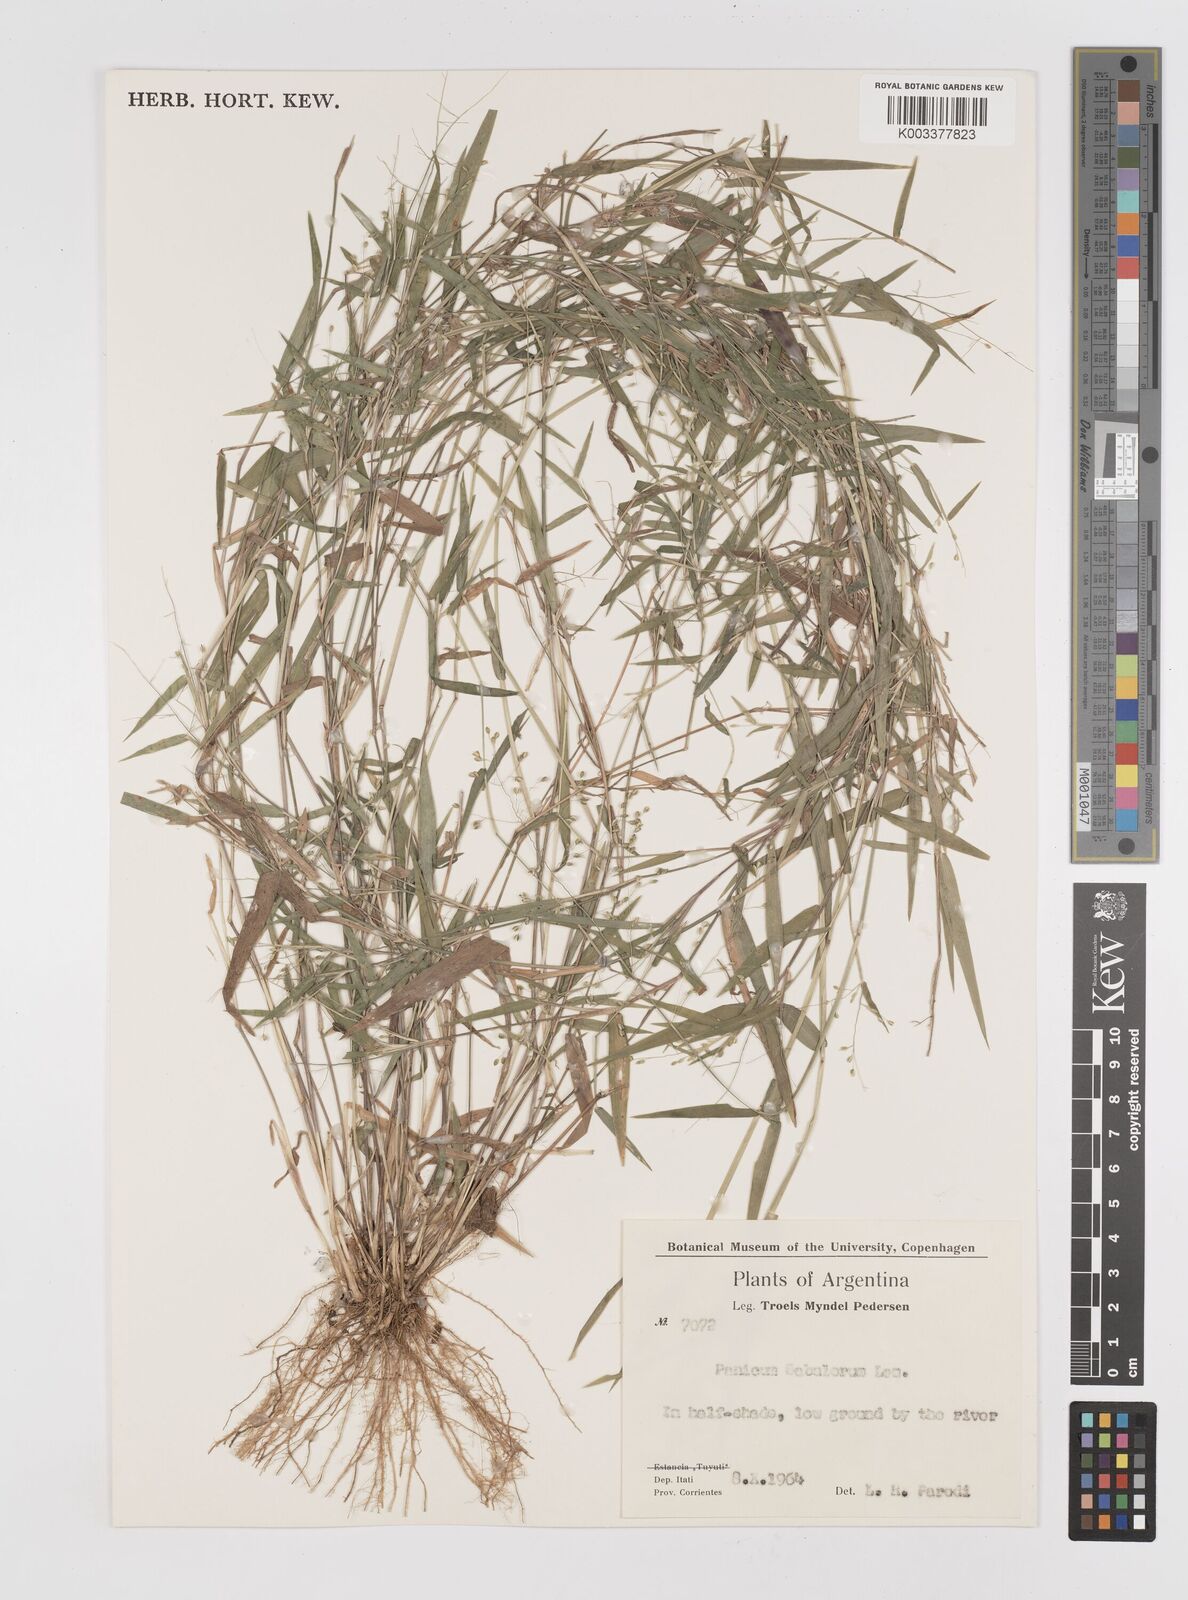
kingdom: Plantae
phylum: Tracheophyta
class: Liliopsida
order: Poales
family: Poaceae
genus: Dichanthelium
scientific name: Dichanthelium sabulorum
